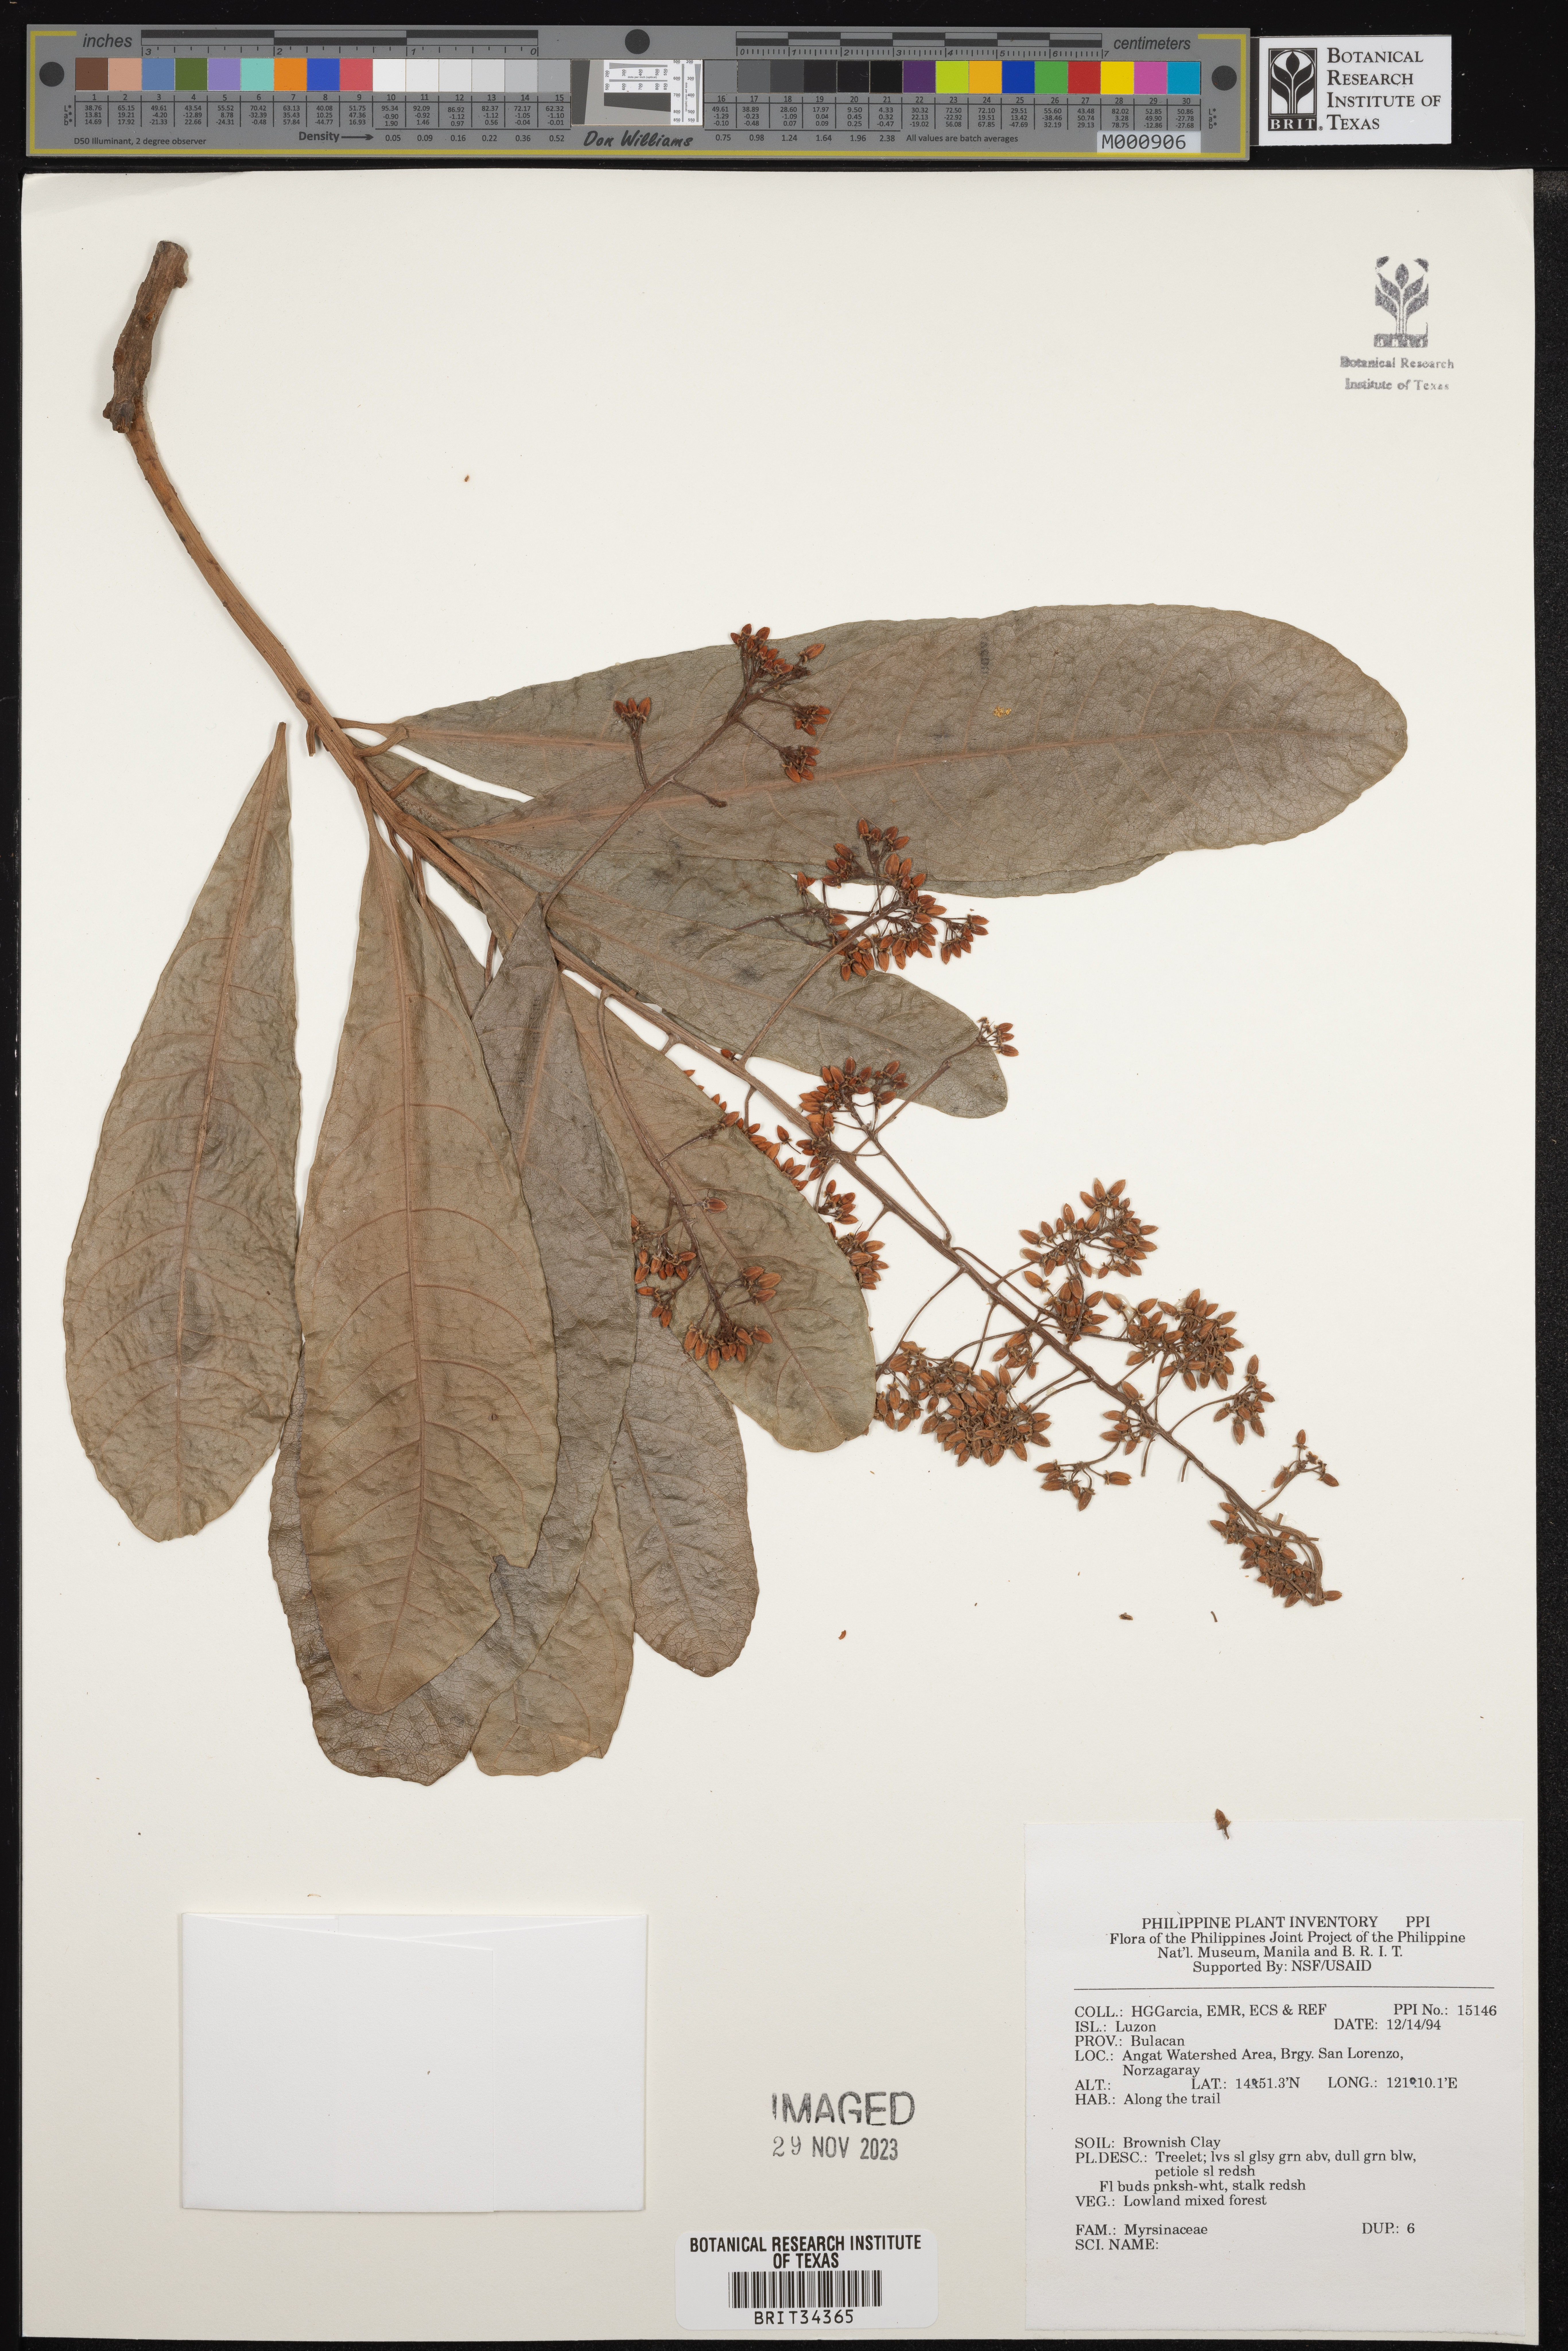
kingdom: Plantae
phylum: Tracheophyta
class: Magnoliopsida
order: Ericales
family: Primulaceae
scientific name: Primulaceae
